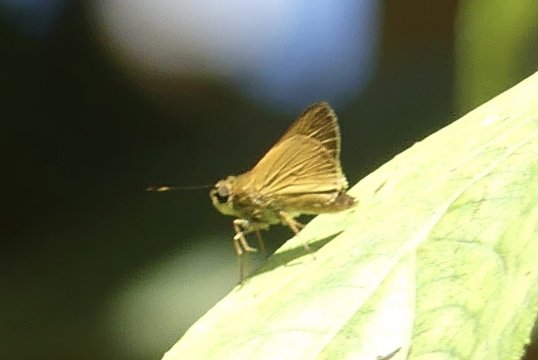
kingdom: Animalia
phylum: Arthropoda
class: Insecta
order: Lepidoptera
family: Hesperiidae
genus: Anthoptus
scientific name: Anthoptus
